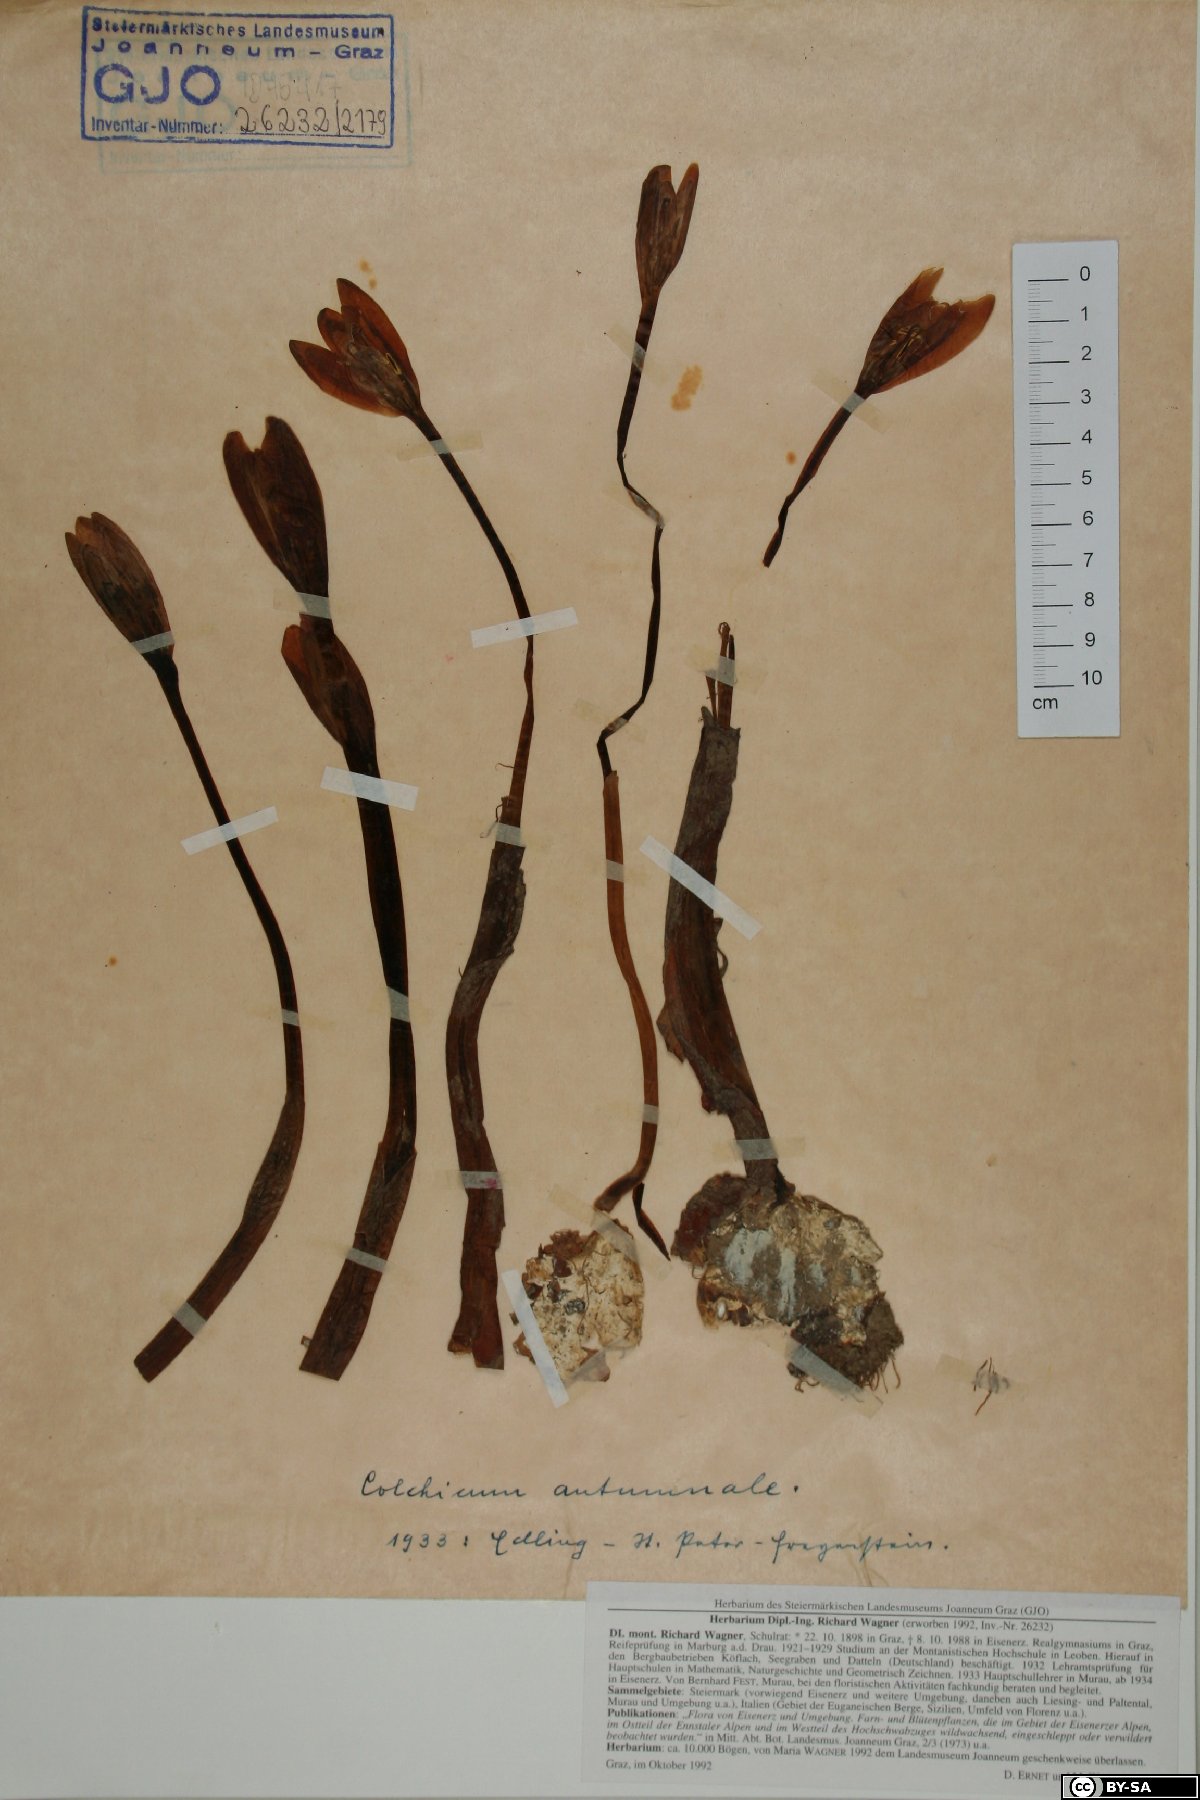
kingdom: Plantae
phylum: Tracheophyta
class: Liliopsida
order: Liliales
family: Colchicaceae
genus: Colchicum
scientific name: Colchicum autumnale
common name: Autumn crocus
